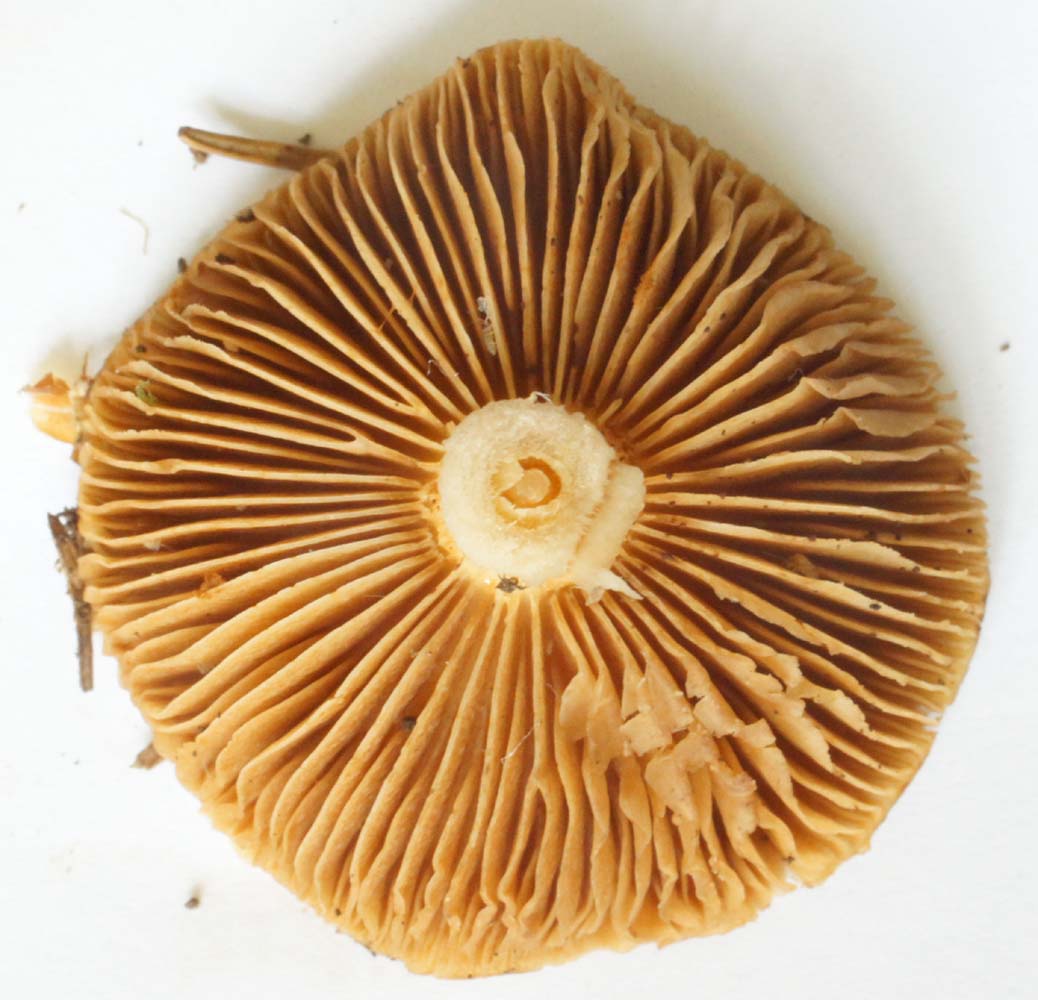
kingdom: Fungi
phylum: Basidiomycota
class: Agaricomycetes
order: Agaricales
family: Cortinariaceae
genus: Cortinarius
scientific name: Cortinarius collinitus
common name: spættet slørhat
